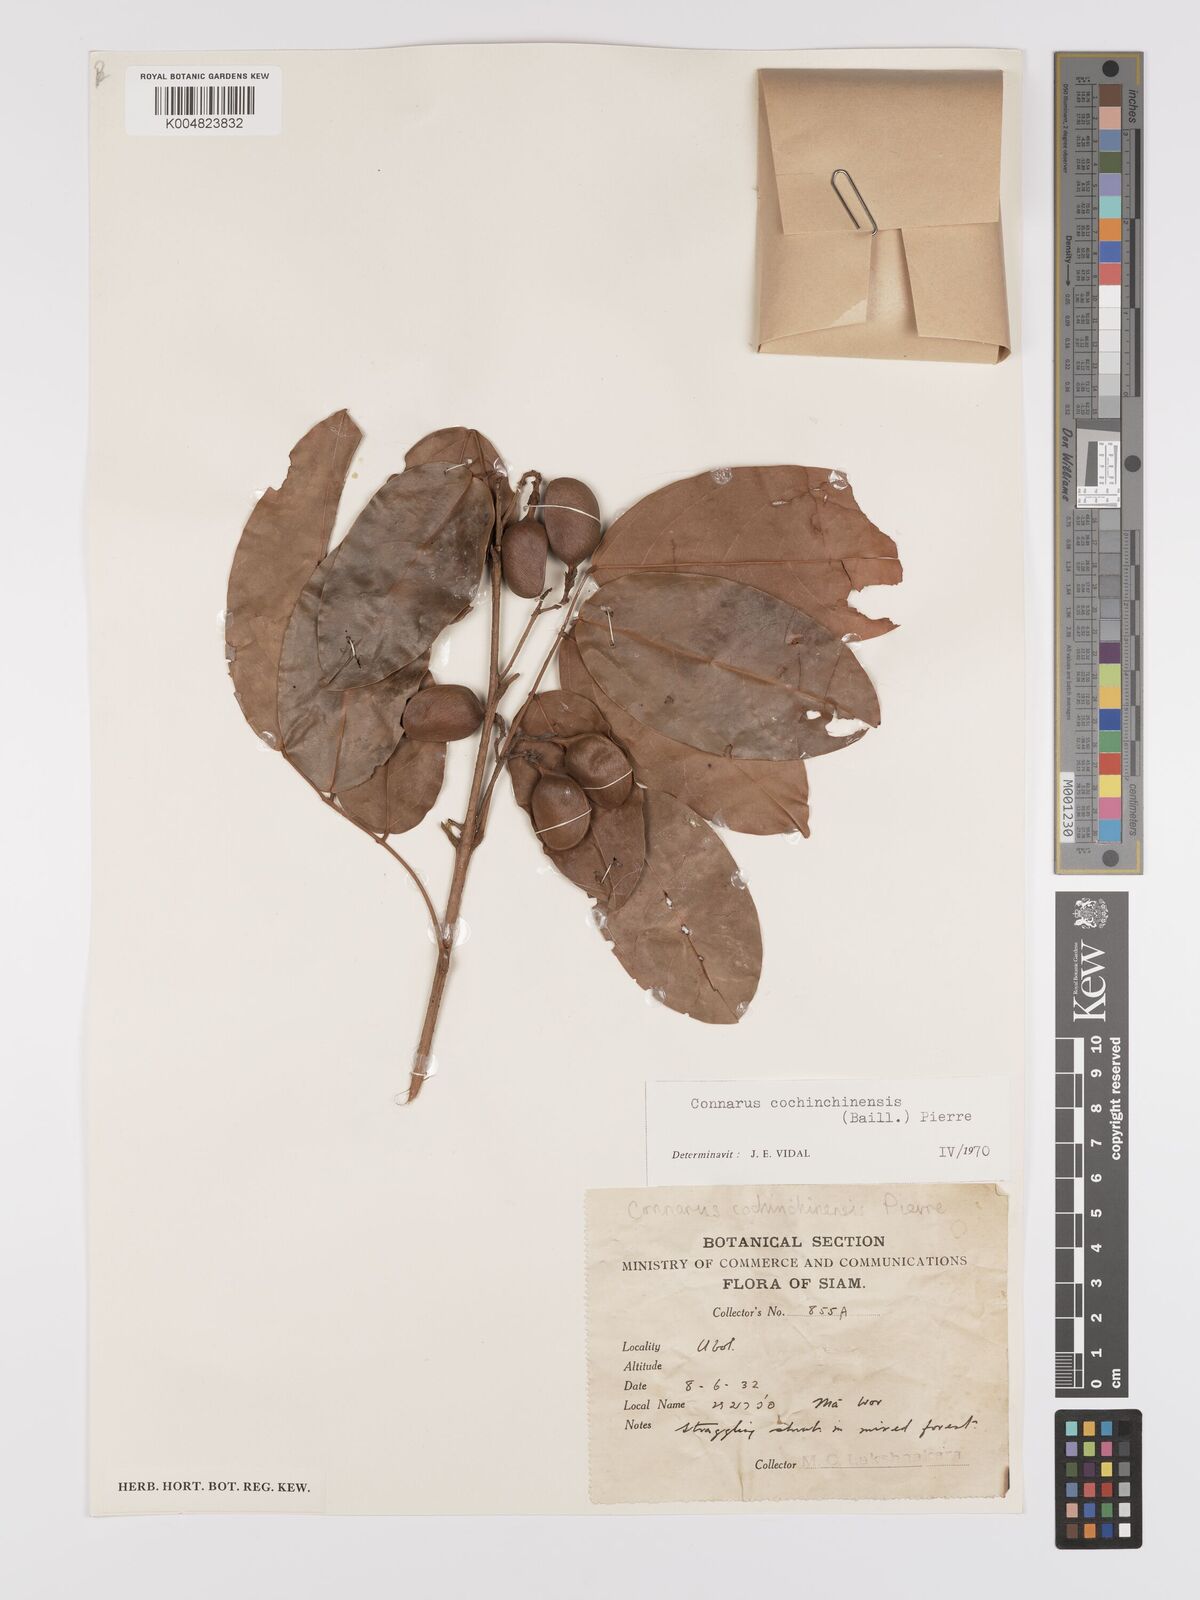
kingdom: Plantae
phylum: Tracheophyta
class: Magnoliopsida
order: Oxalidales
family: Connaraceae
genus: Connarus
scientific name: Connarus cochinchinensis
